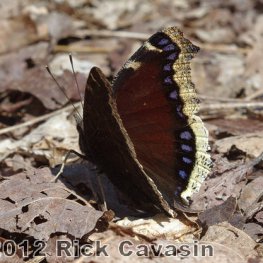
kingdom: Animalia
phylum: Arthropoda
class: Insecta
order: Lepidoptera
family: Nymphalidae
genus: Nymphalis
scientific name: Nymphalis antiopa
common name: Mourning Cloak
